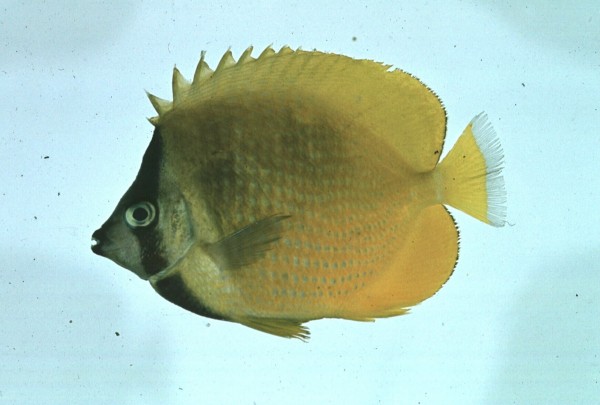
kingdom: Animalia
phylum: Chordata
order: Perciformes
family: Chaetodontidae
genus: Chaetodon
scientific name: Chaetodon kleinii
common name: Klein's butterflyfish
